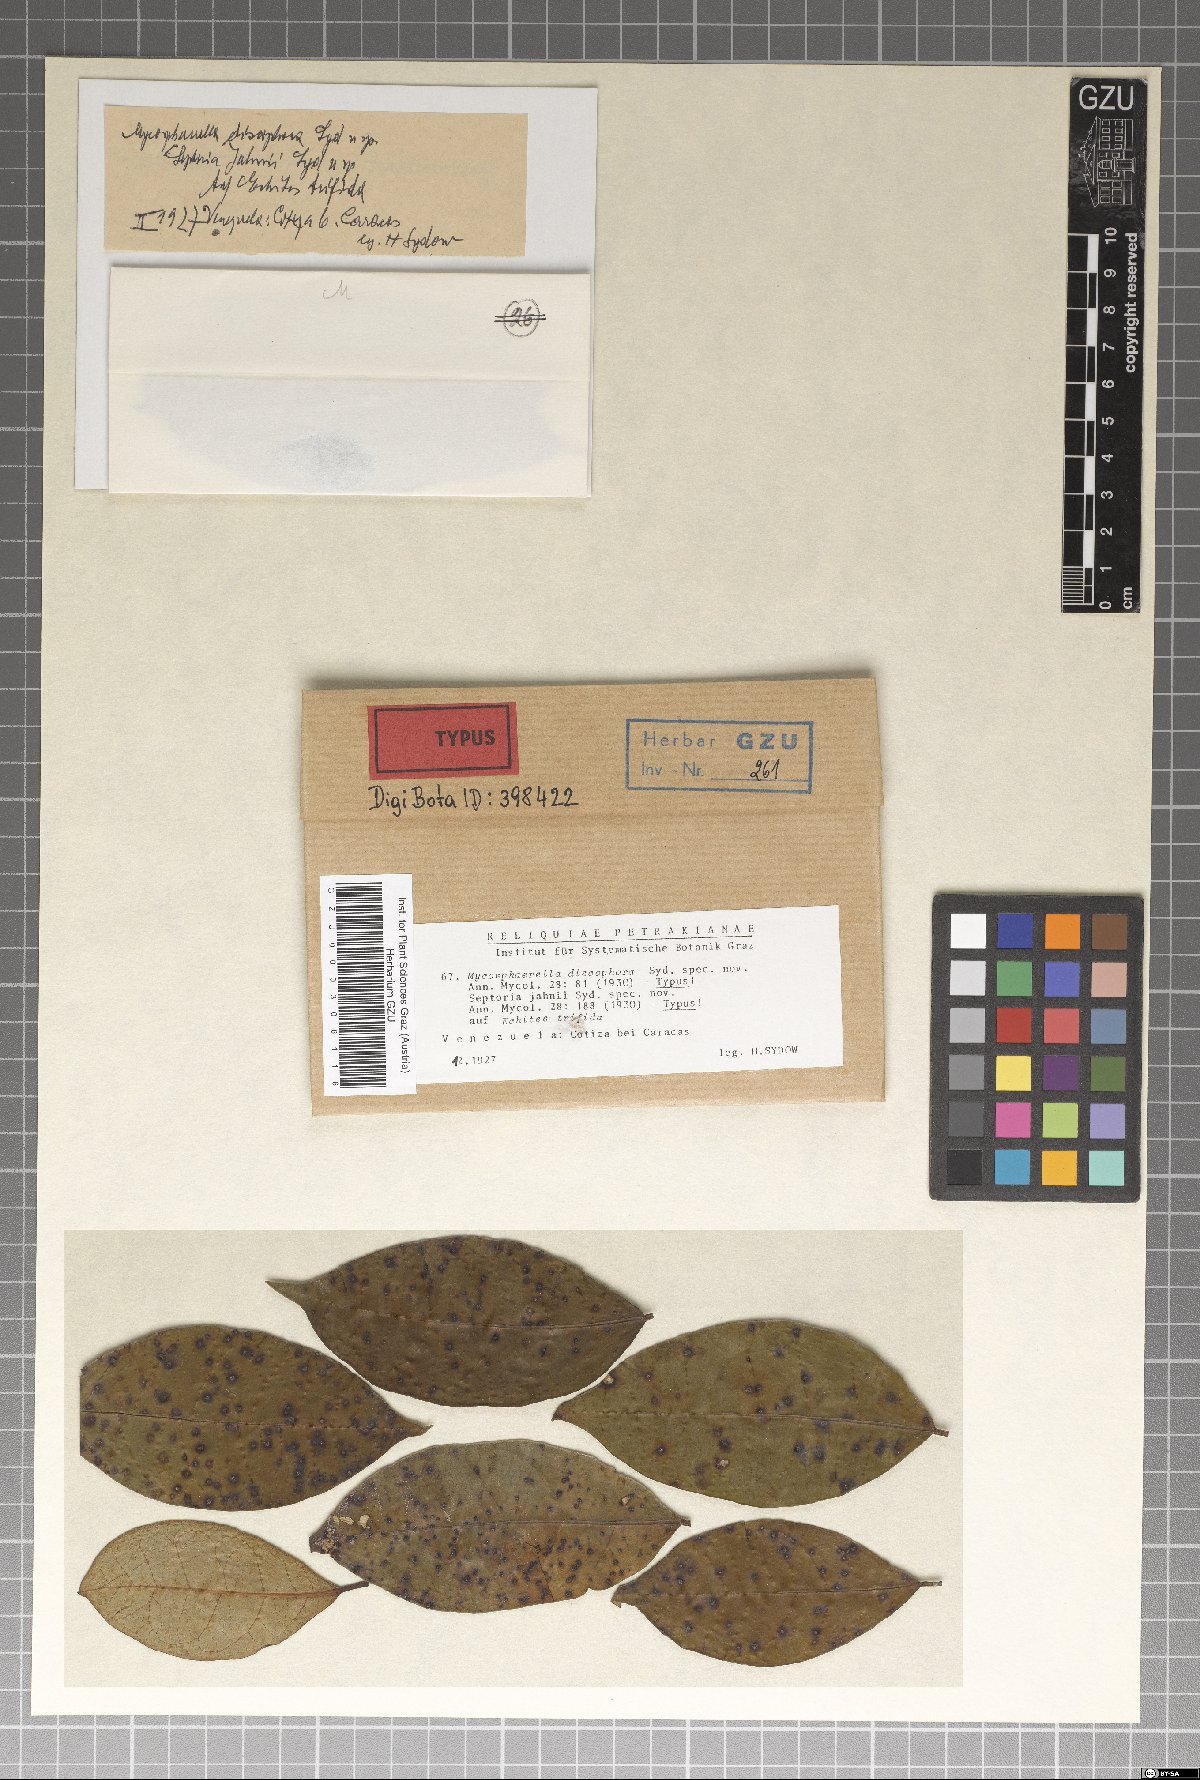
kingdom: Fungi
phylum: Ascomycota
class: Dothideomycetes
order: Mycosphaerellales
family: Mycosphaerellaceae
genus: Mycosphaerella
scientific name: Mycosphaerella discophora
